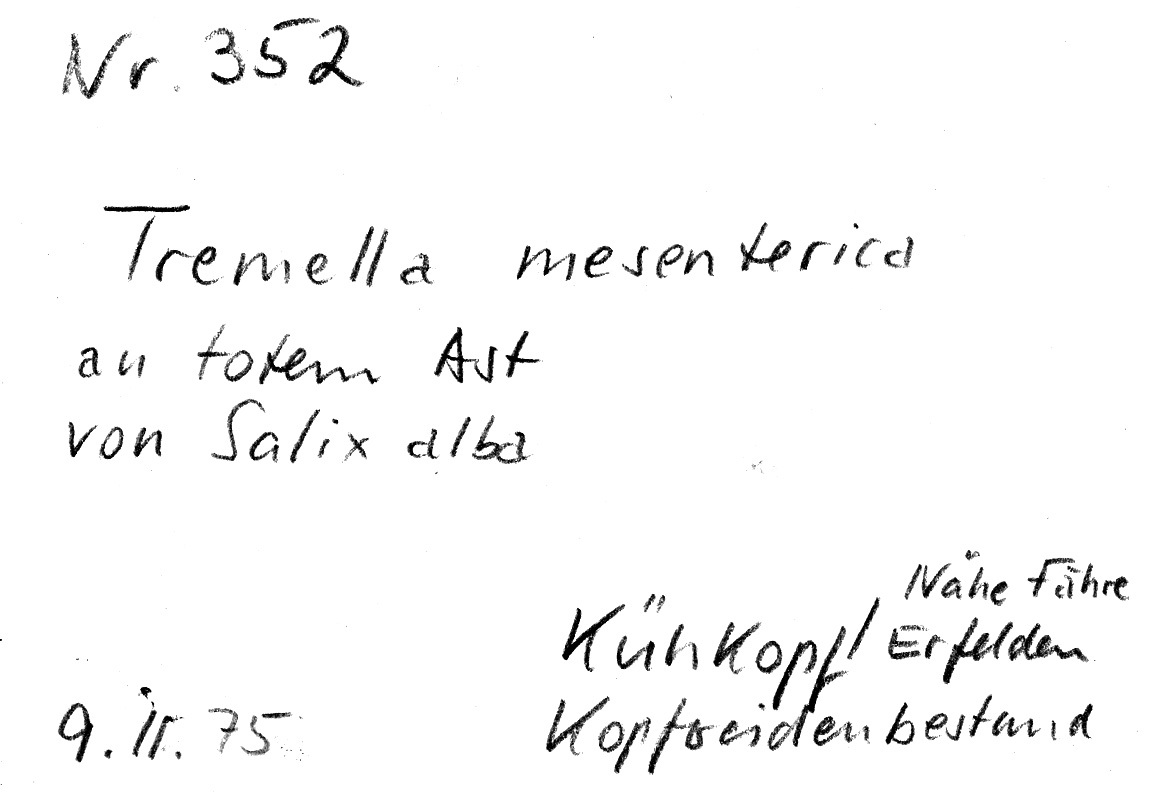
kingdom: Plantae
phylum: Tracheophyta
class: Magnoliopsida
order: Malpighiales
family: Salicaceae
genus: Salix
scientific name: Salix alba
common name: White willow
